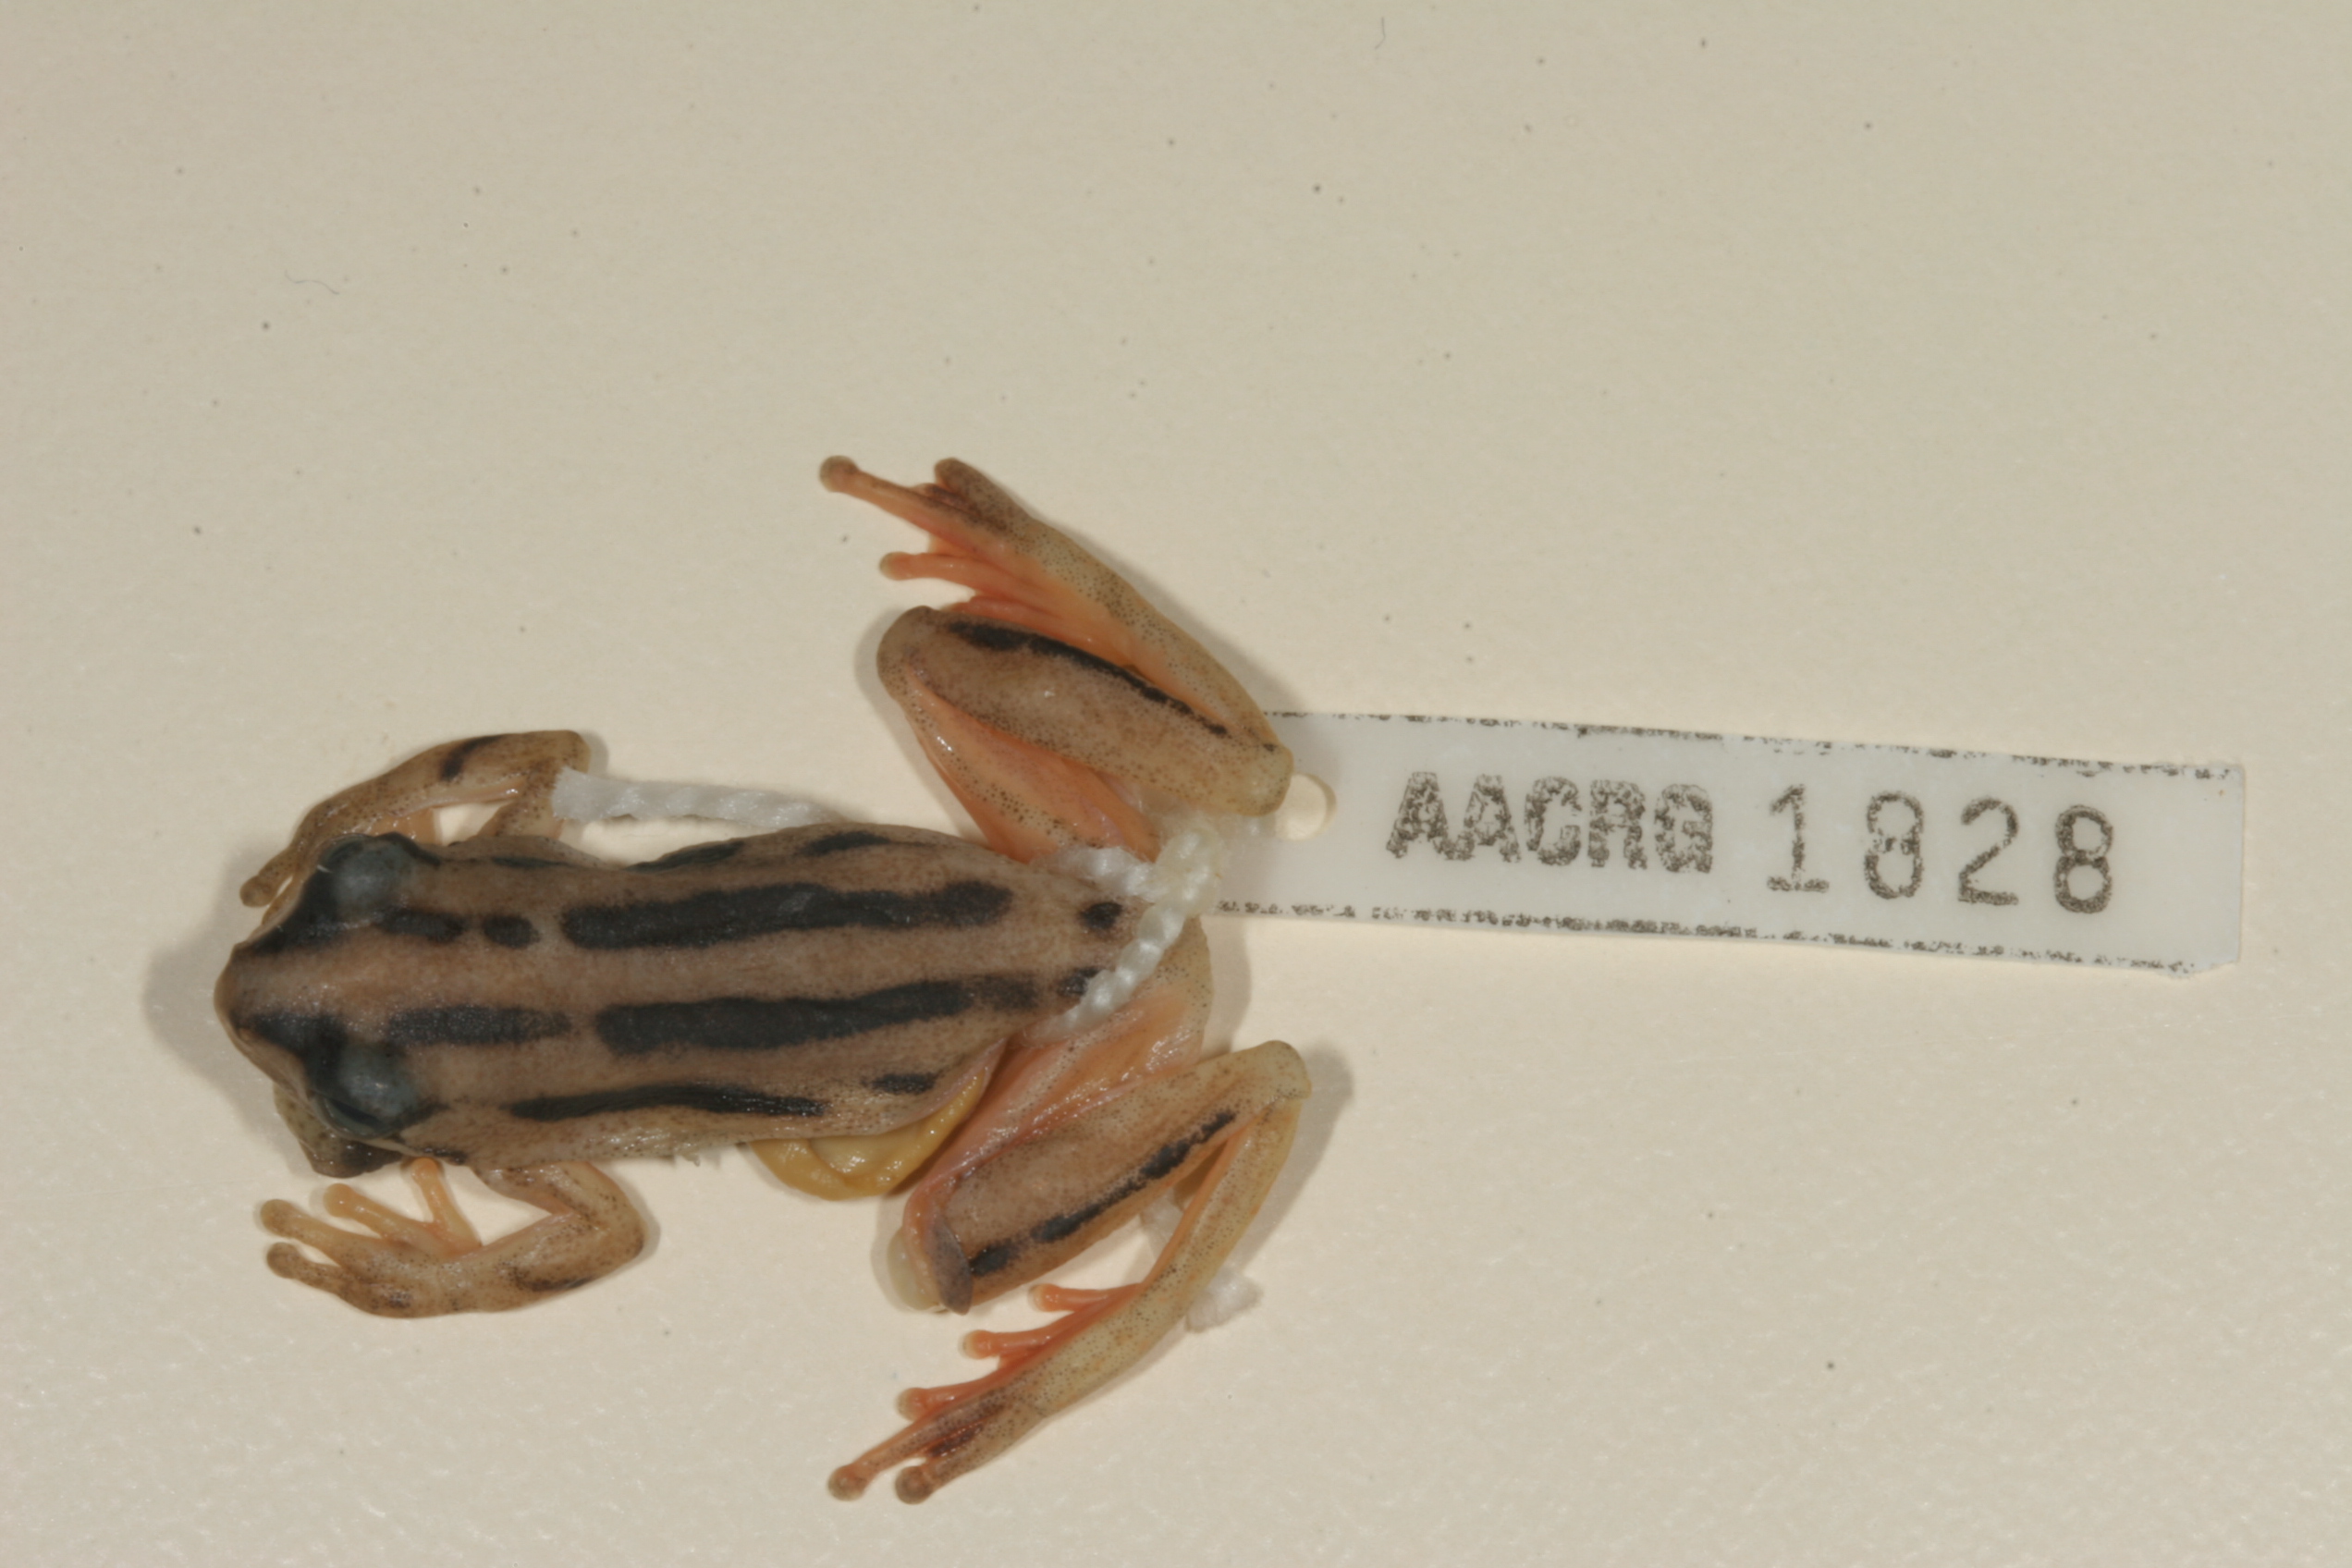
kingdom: Animalia
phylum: Chordata
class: Amphibia
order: Anura
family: Hyperoliidae
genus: Hyperolius
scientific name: Hyperolius marmoratus
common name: Painted reed frog
